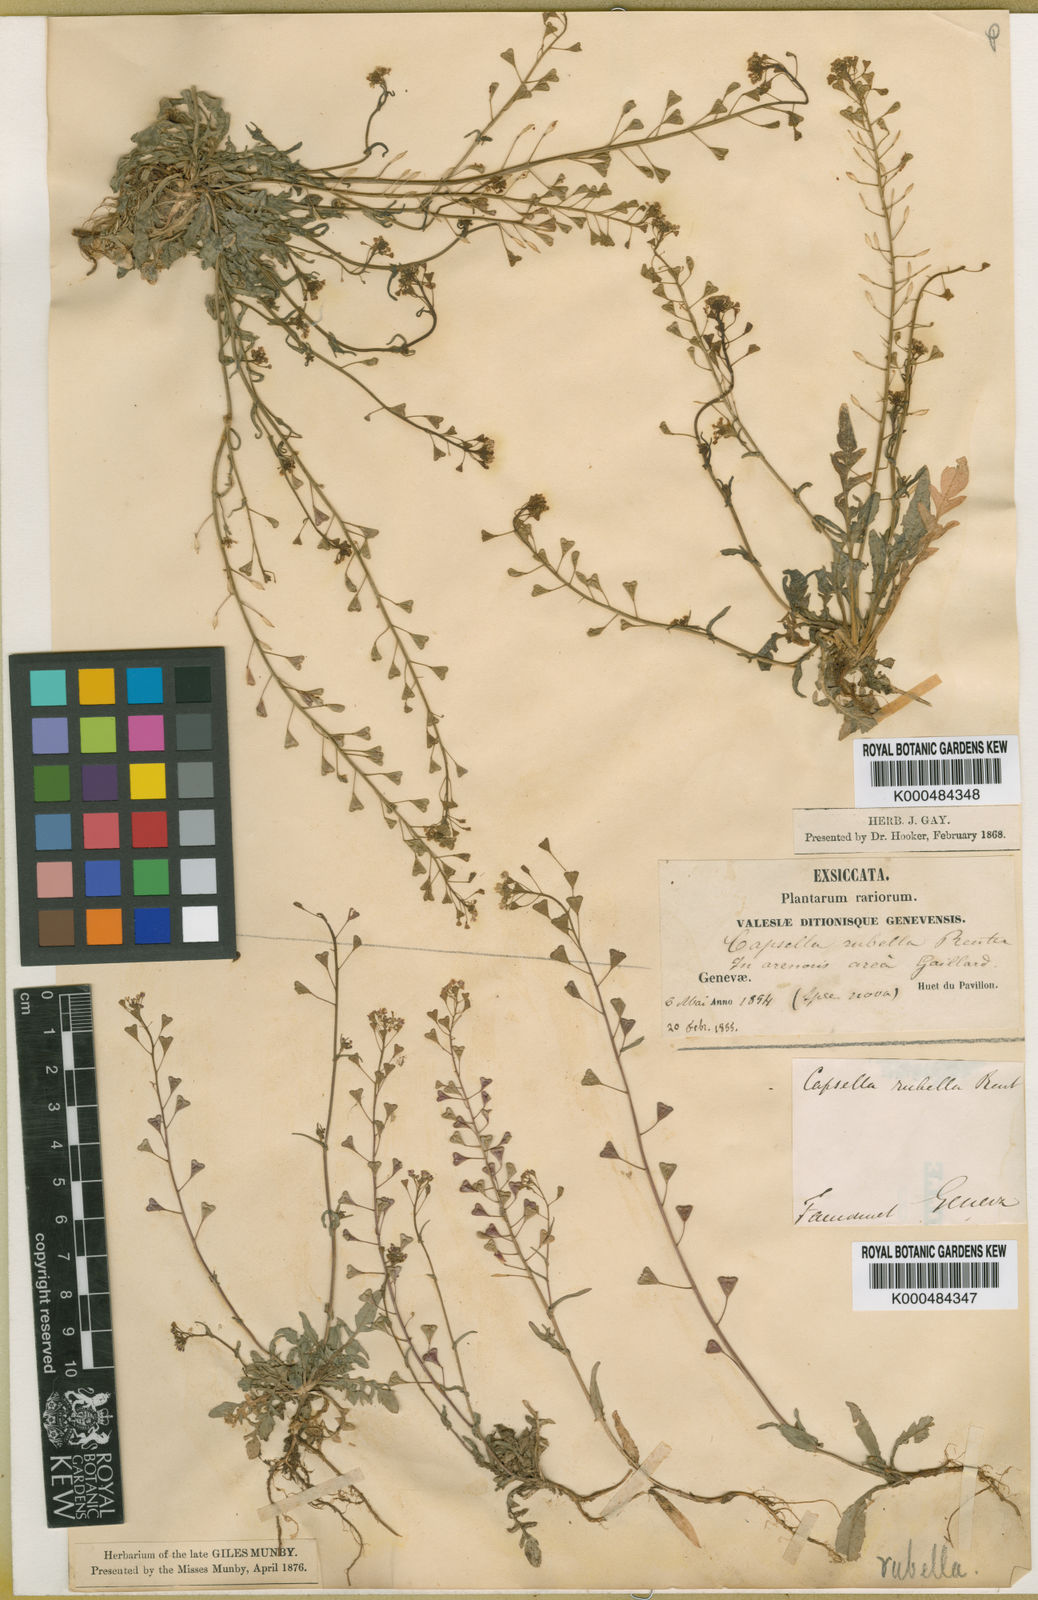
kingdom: Plantae
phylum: Tracheophyta
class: Magnoliopsida
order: Brassicales
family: Brassicaceae
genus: Capsella
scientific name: Capsella rubella
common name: Pink shepherd's-purse
